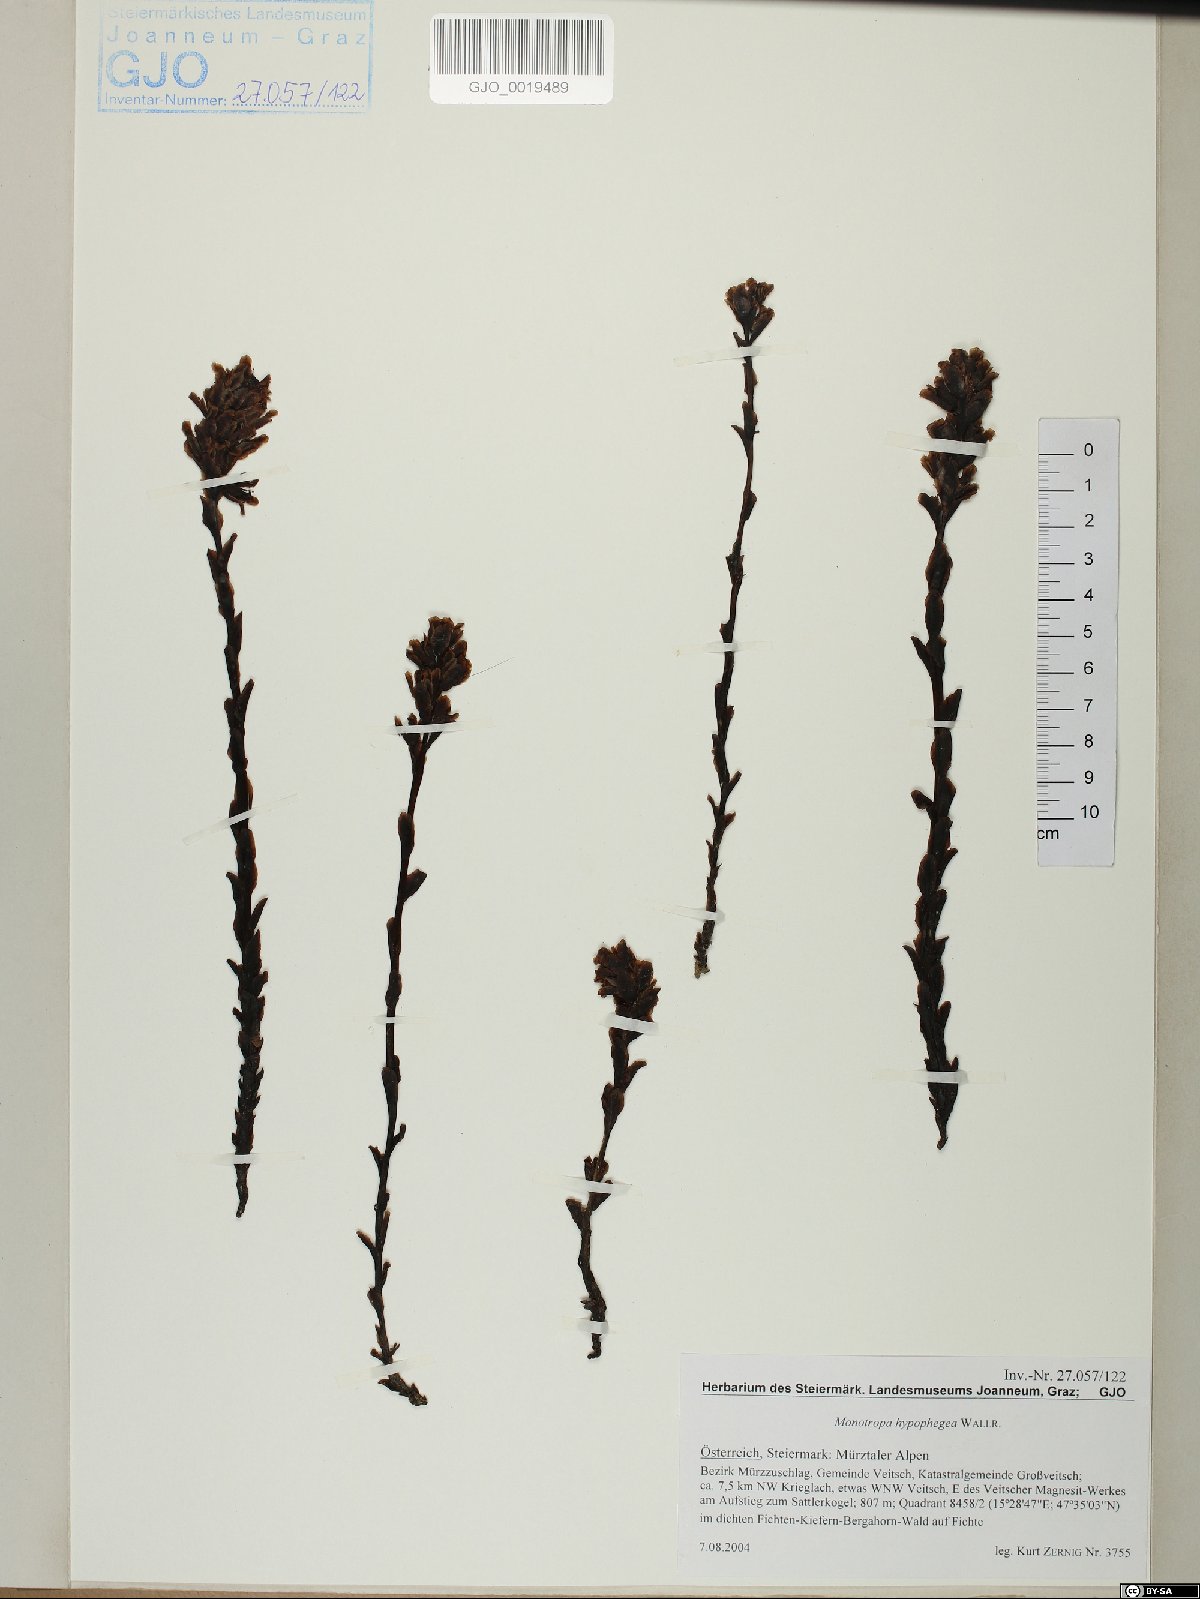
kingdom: Plantae
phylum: Tracheophyta
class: Magnoliopsida
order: Ericales
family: Ericaceae
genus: Hypopitys
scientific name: Hypopitys hypophegea
